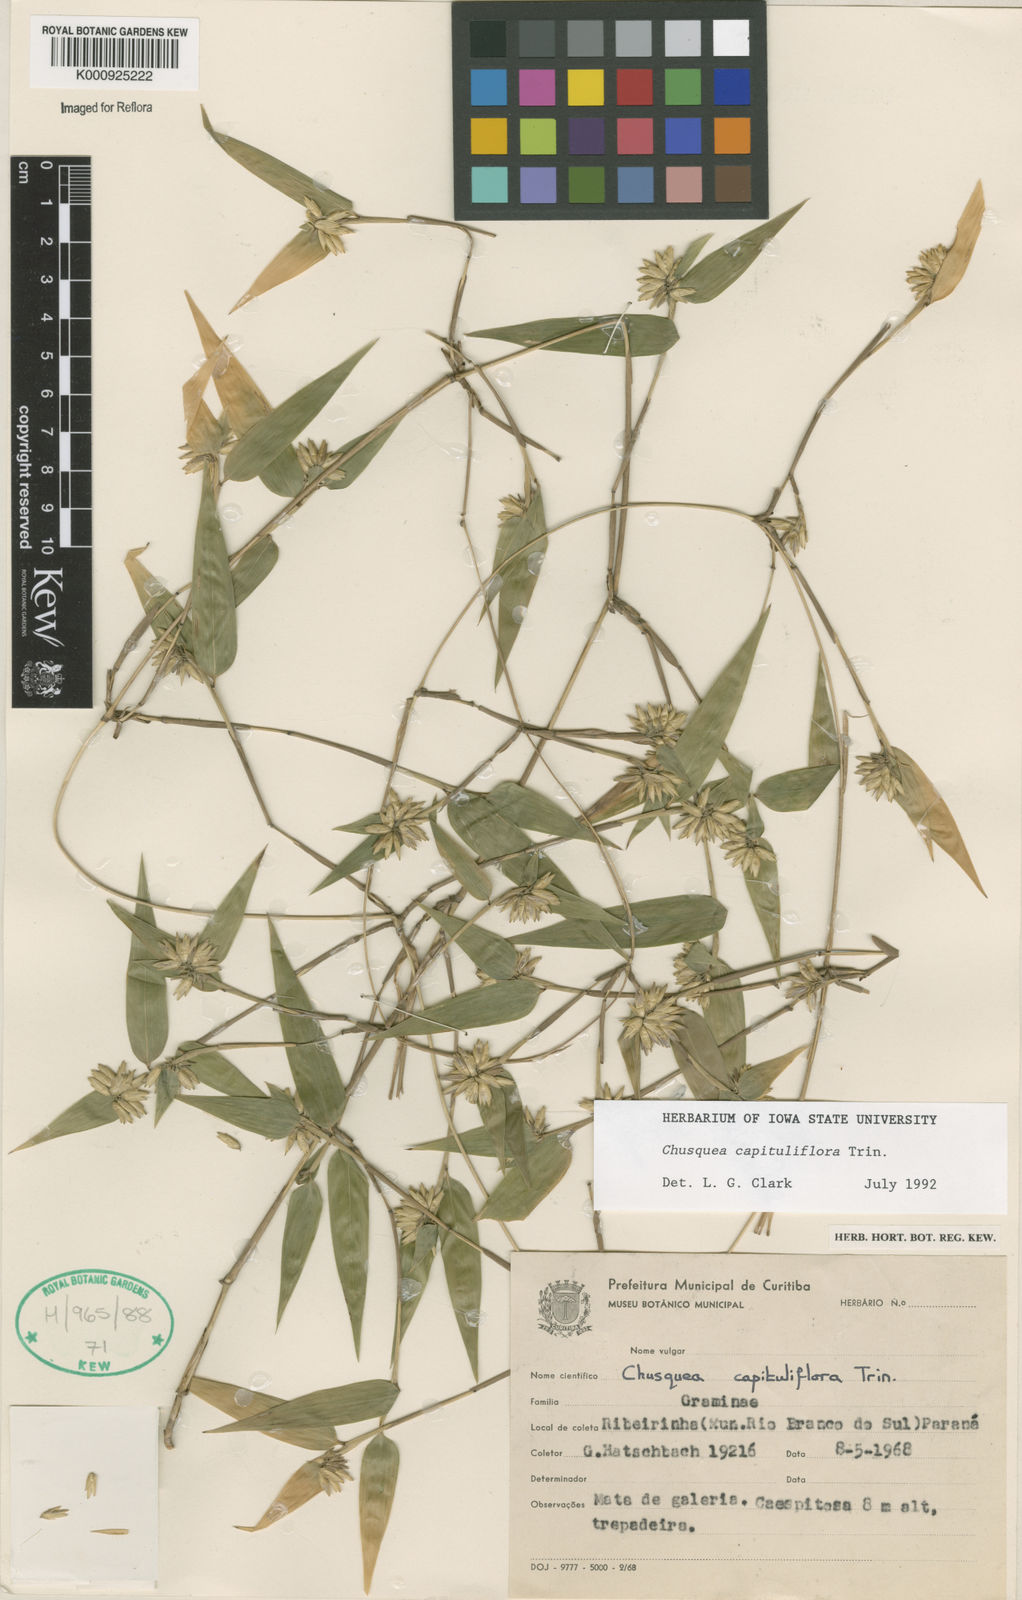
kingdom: Plantae
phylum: Tracheophyta
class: Liliopsida
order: Poales
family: Poaceae
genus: Chusquea
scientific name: Chusquea
